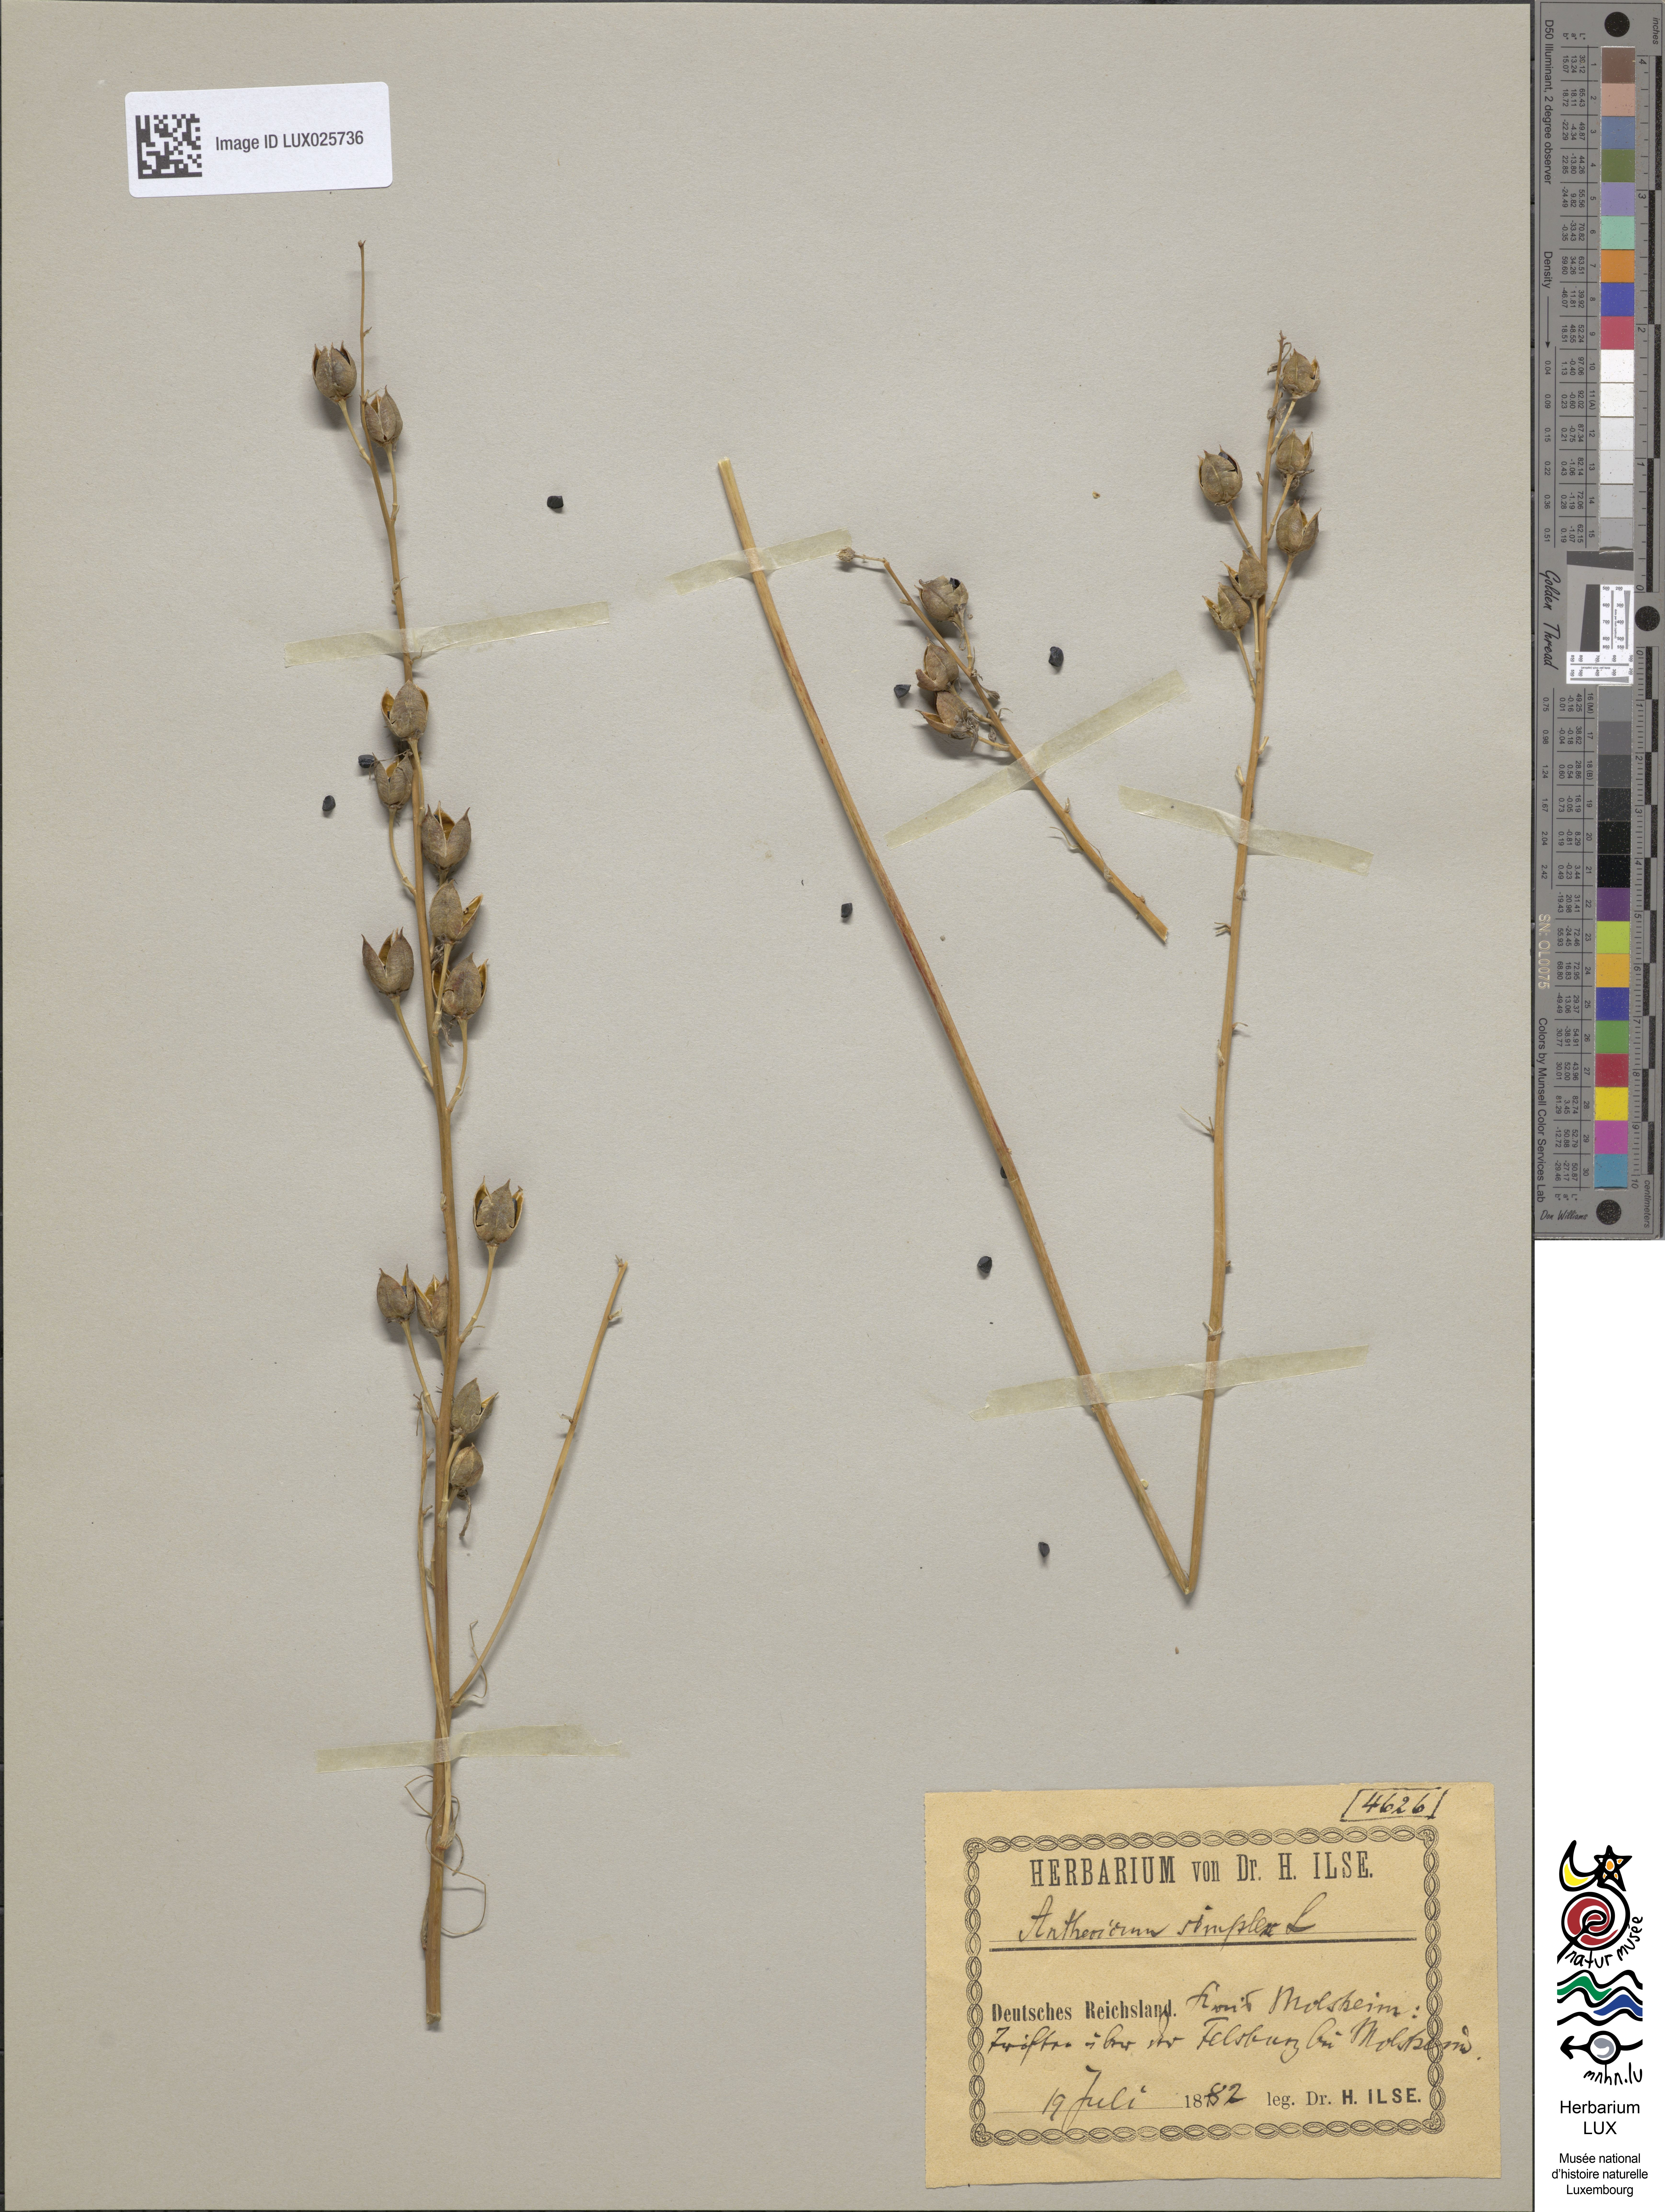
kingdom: Plantae
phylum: Tracheophyta
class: Liliopsida
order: Asparagales
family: Asparagaceae
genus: Anthericum
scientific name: Anthericum simplex
